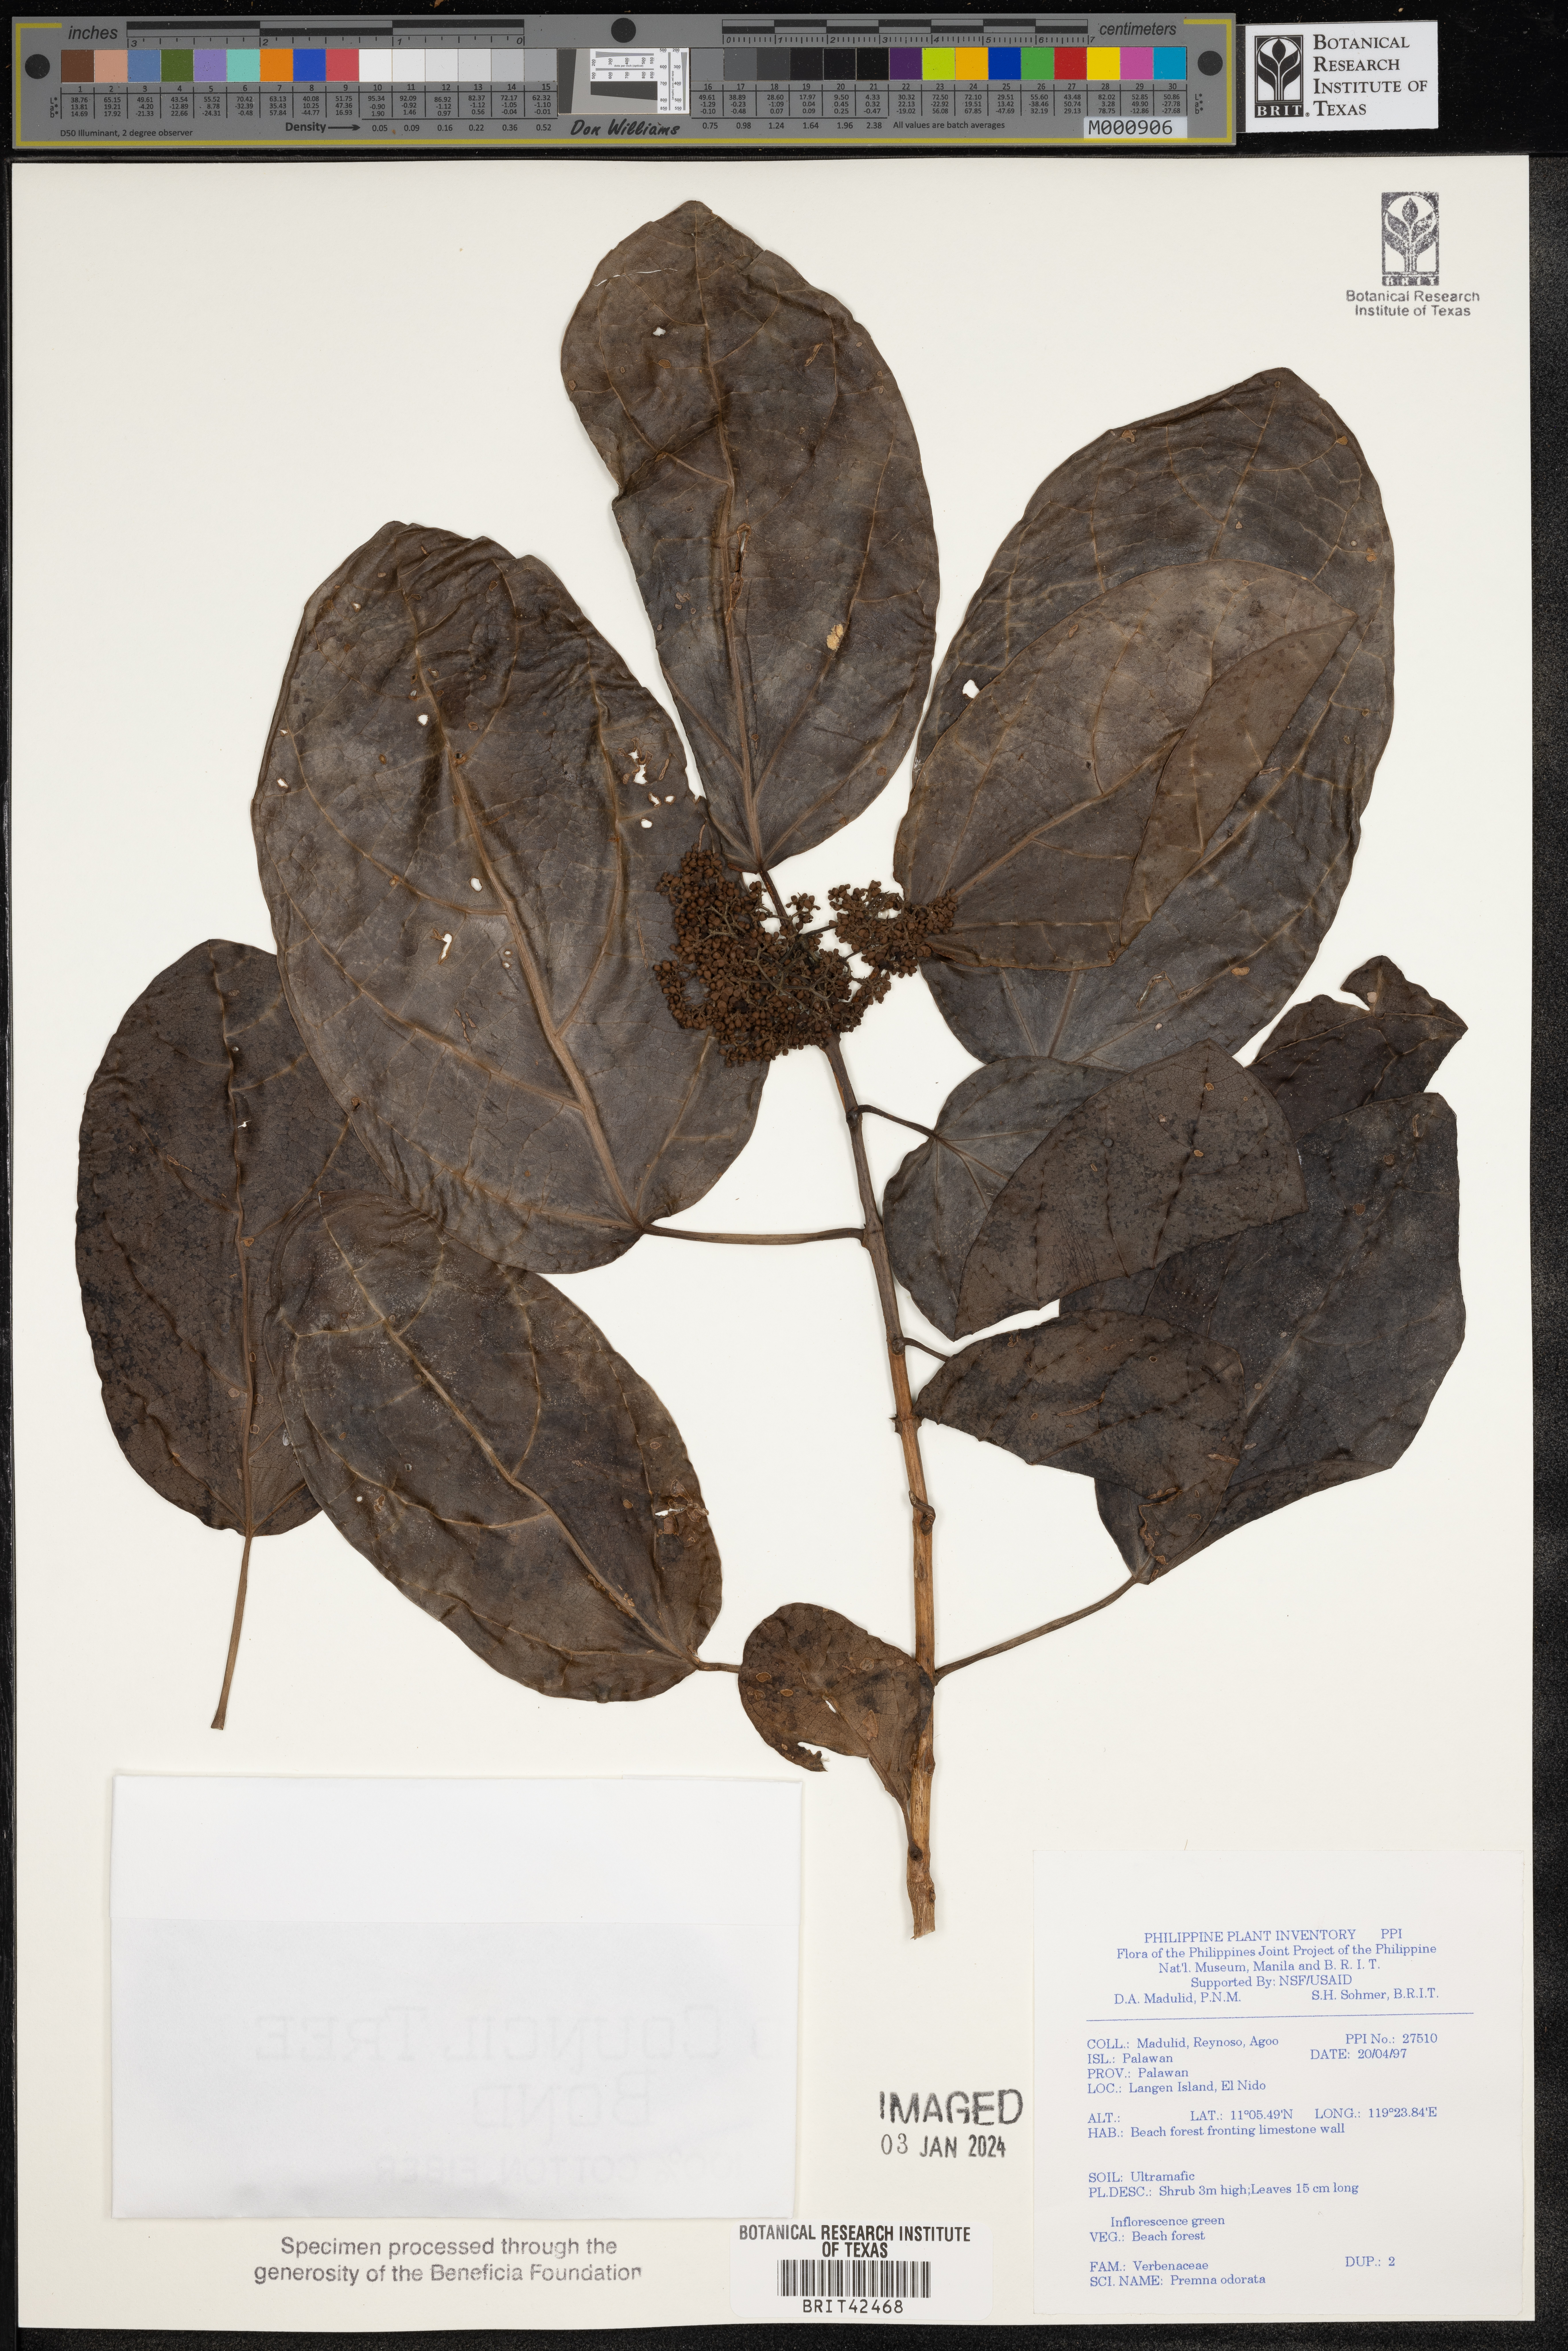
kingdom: Plantae
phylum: Tracheophyta
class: Magnoliopsida
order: Lamiales
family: Lamiaceae
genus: Premna
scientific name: Premna odorata
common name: Fragrant premna
